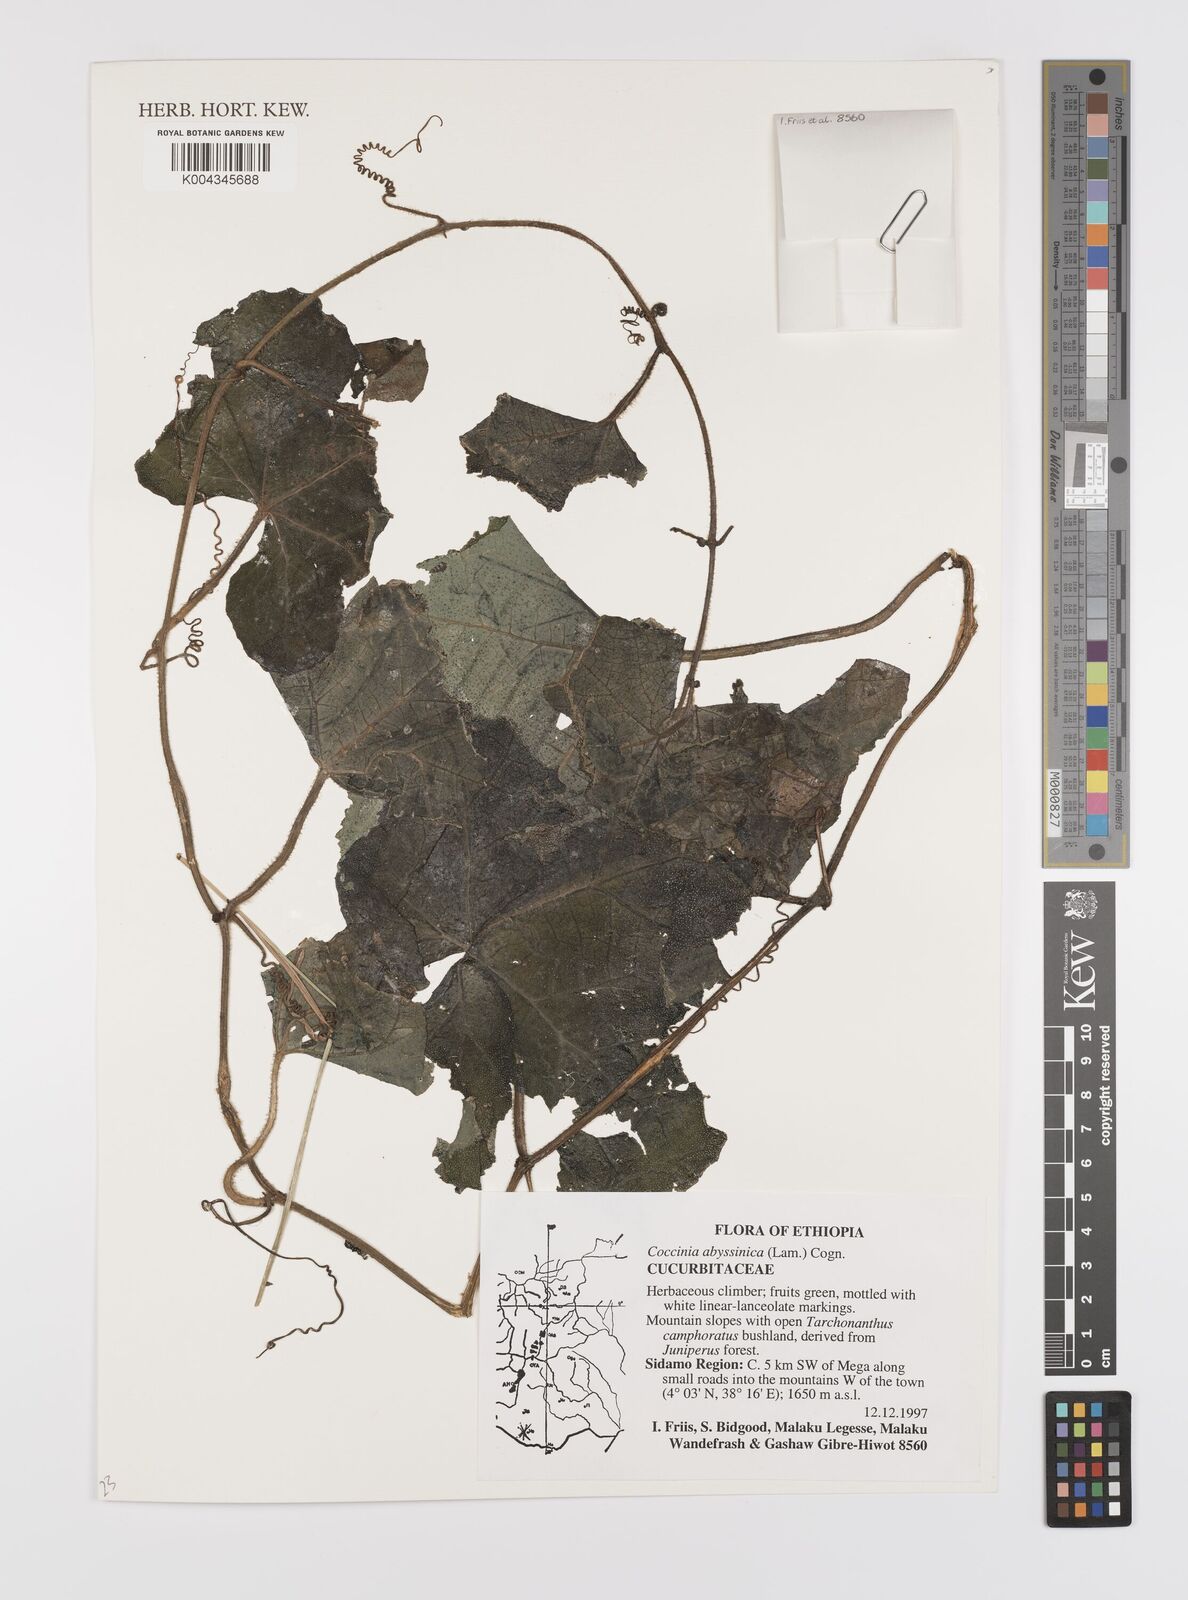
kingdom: Plantae
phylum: Tracheophyta
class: Magnoliopsida
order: Cucurbitales
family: Cucurbitaceae
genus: Coccinia
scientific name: Coccinia abyssinica
